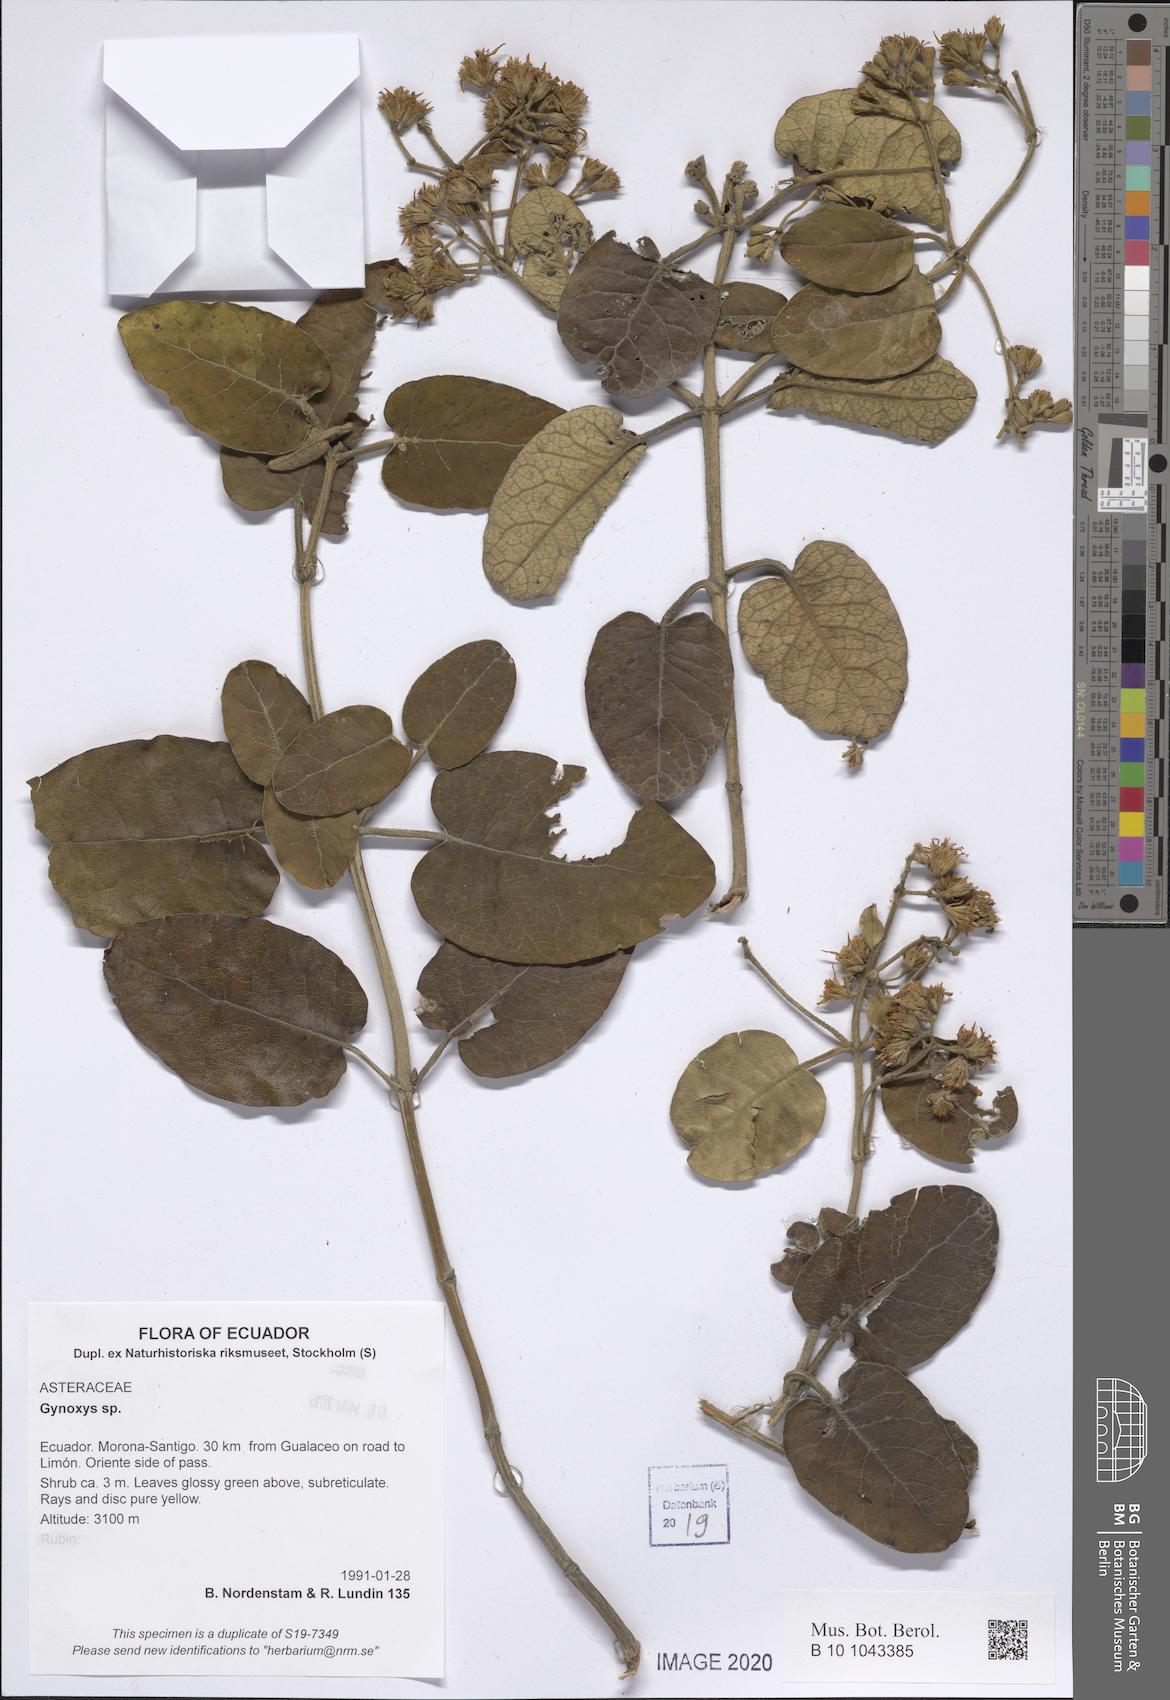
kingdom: Plantae
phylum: Tracheophyta
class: Magnoliopsida
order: Asterales
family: Asteraceae
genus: Gynoxys
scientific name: Gynoxys
